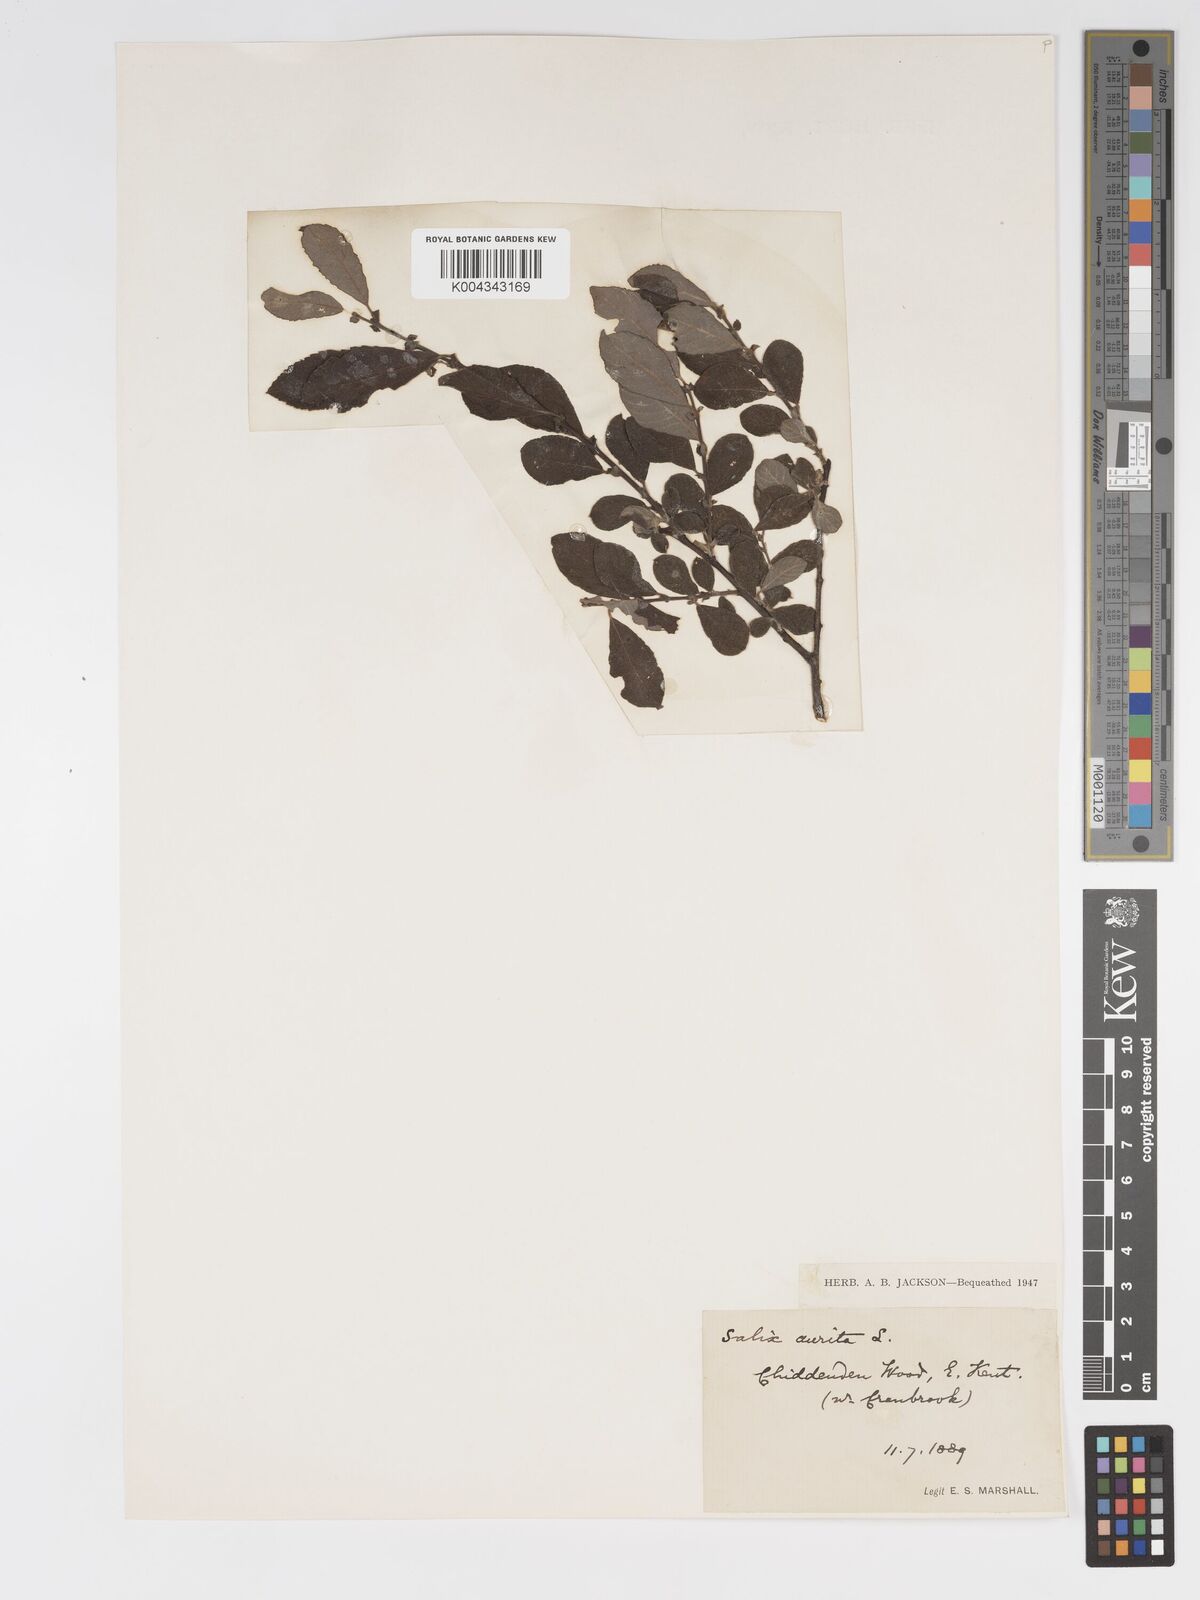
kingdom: Plantae
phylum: Tracheophyta
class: Magnoliopsida
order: Malpighiales
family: Salicaceae
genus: Salix
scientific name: Salix aurita
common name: Eared willow
